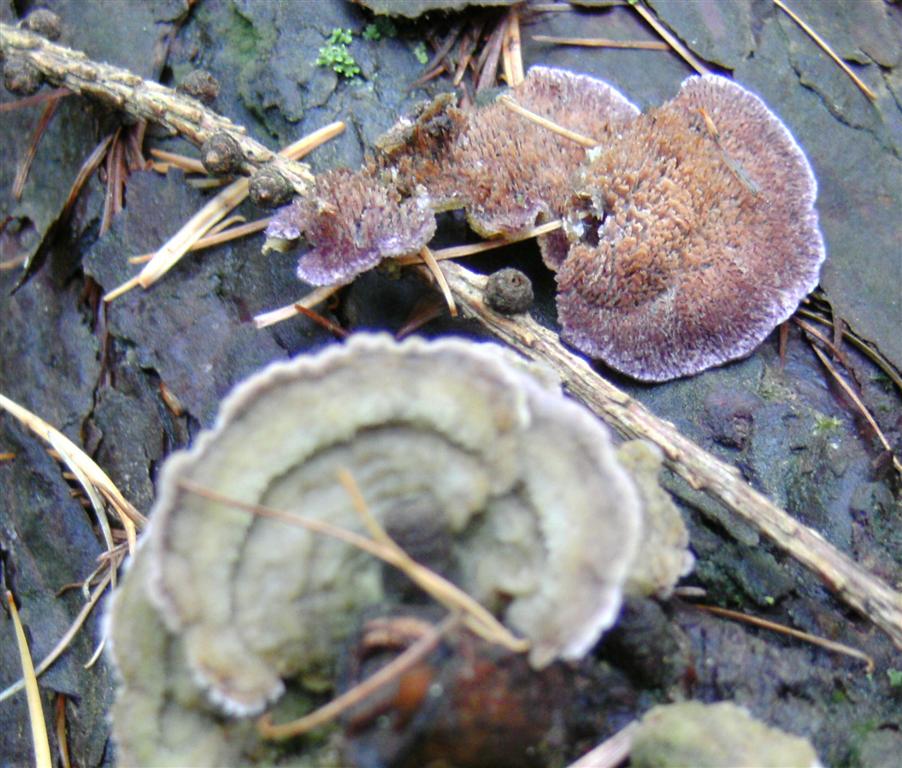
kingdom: Fungi
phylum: Basidiomycota
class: Agaricomycetes
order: Hymenochaetales
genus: Trichaptum
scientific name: Trichaptum fuscoviolaceum
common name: tandet violporesvamp
